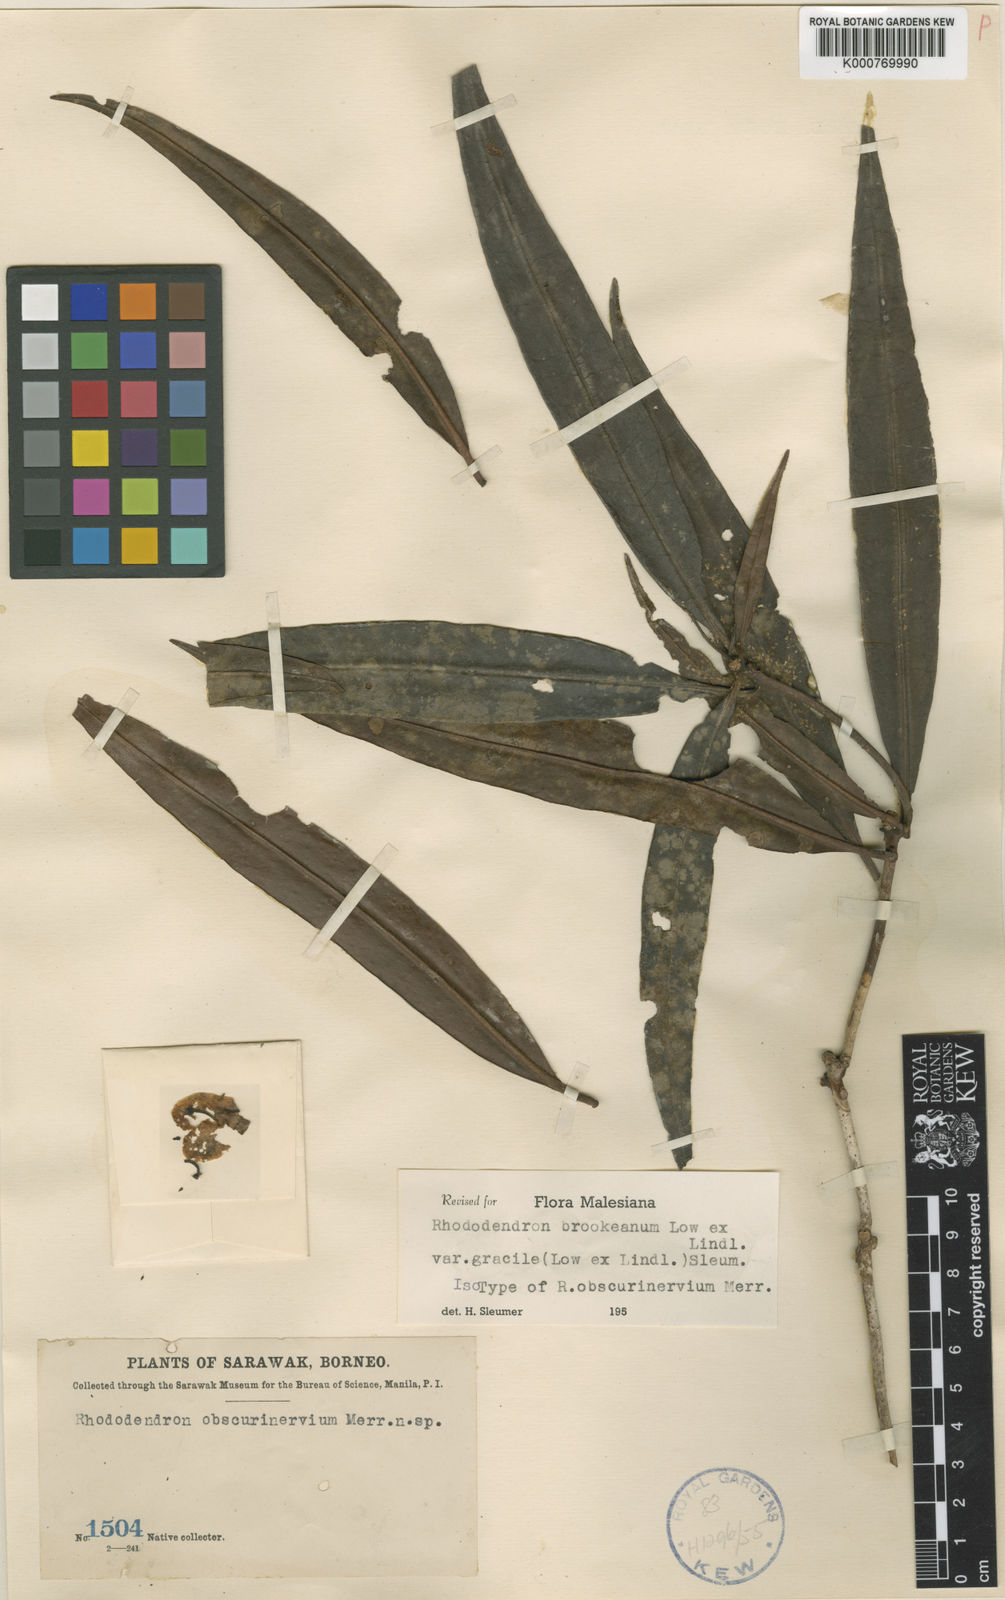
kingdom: Plantae
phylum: Tracheophyta
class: Magnoliopsida
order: Ericales
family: Ericaceae
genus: Rhododendron
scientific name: Rhododendron javanicum
